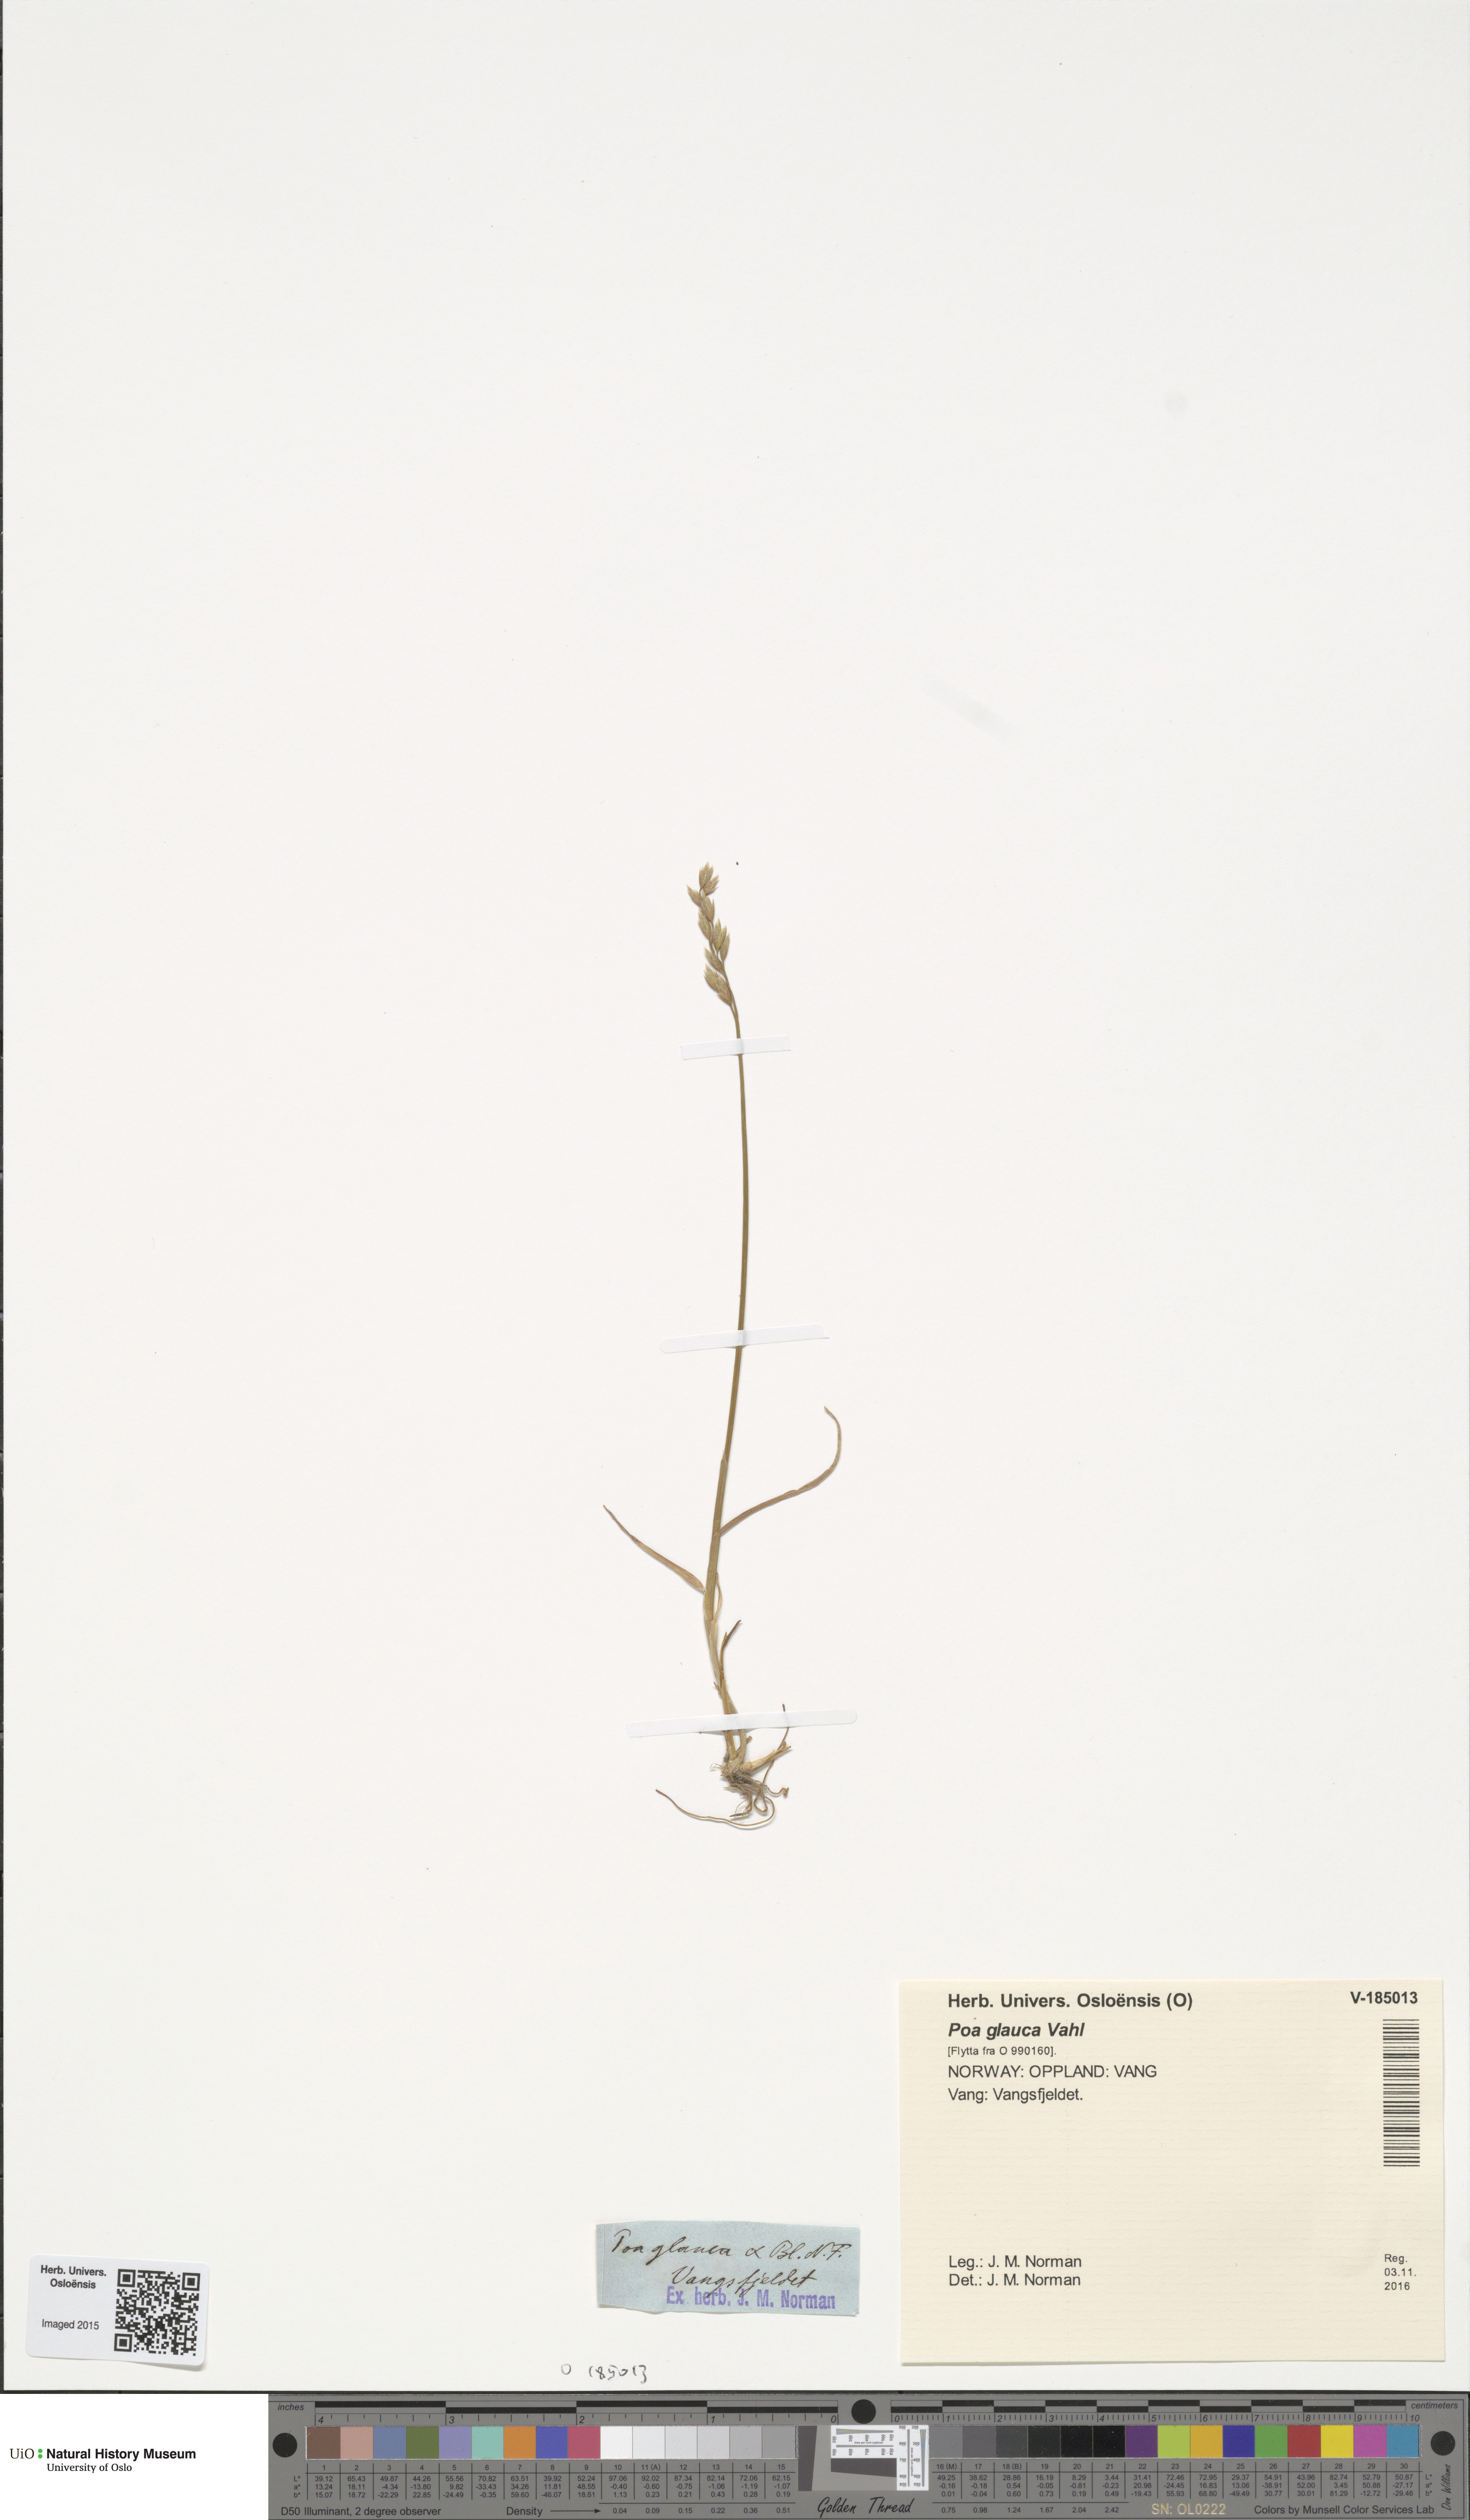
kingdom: Plantae
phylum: Tracheophyta
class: Liliopsida
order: Poales
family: Poaceae
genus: Poa
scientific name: Poa glauca
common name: Glaucous bluegrass
